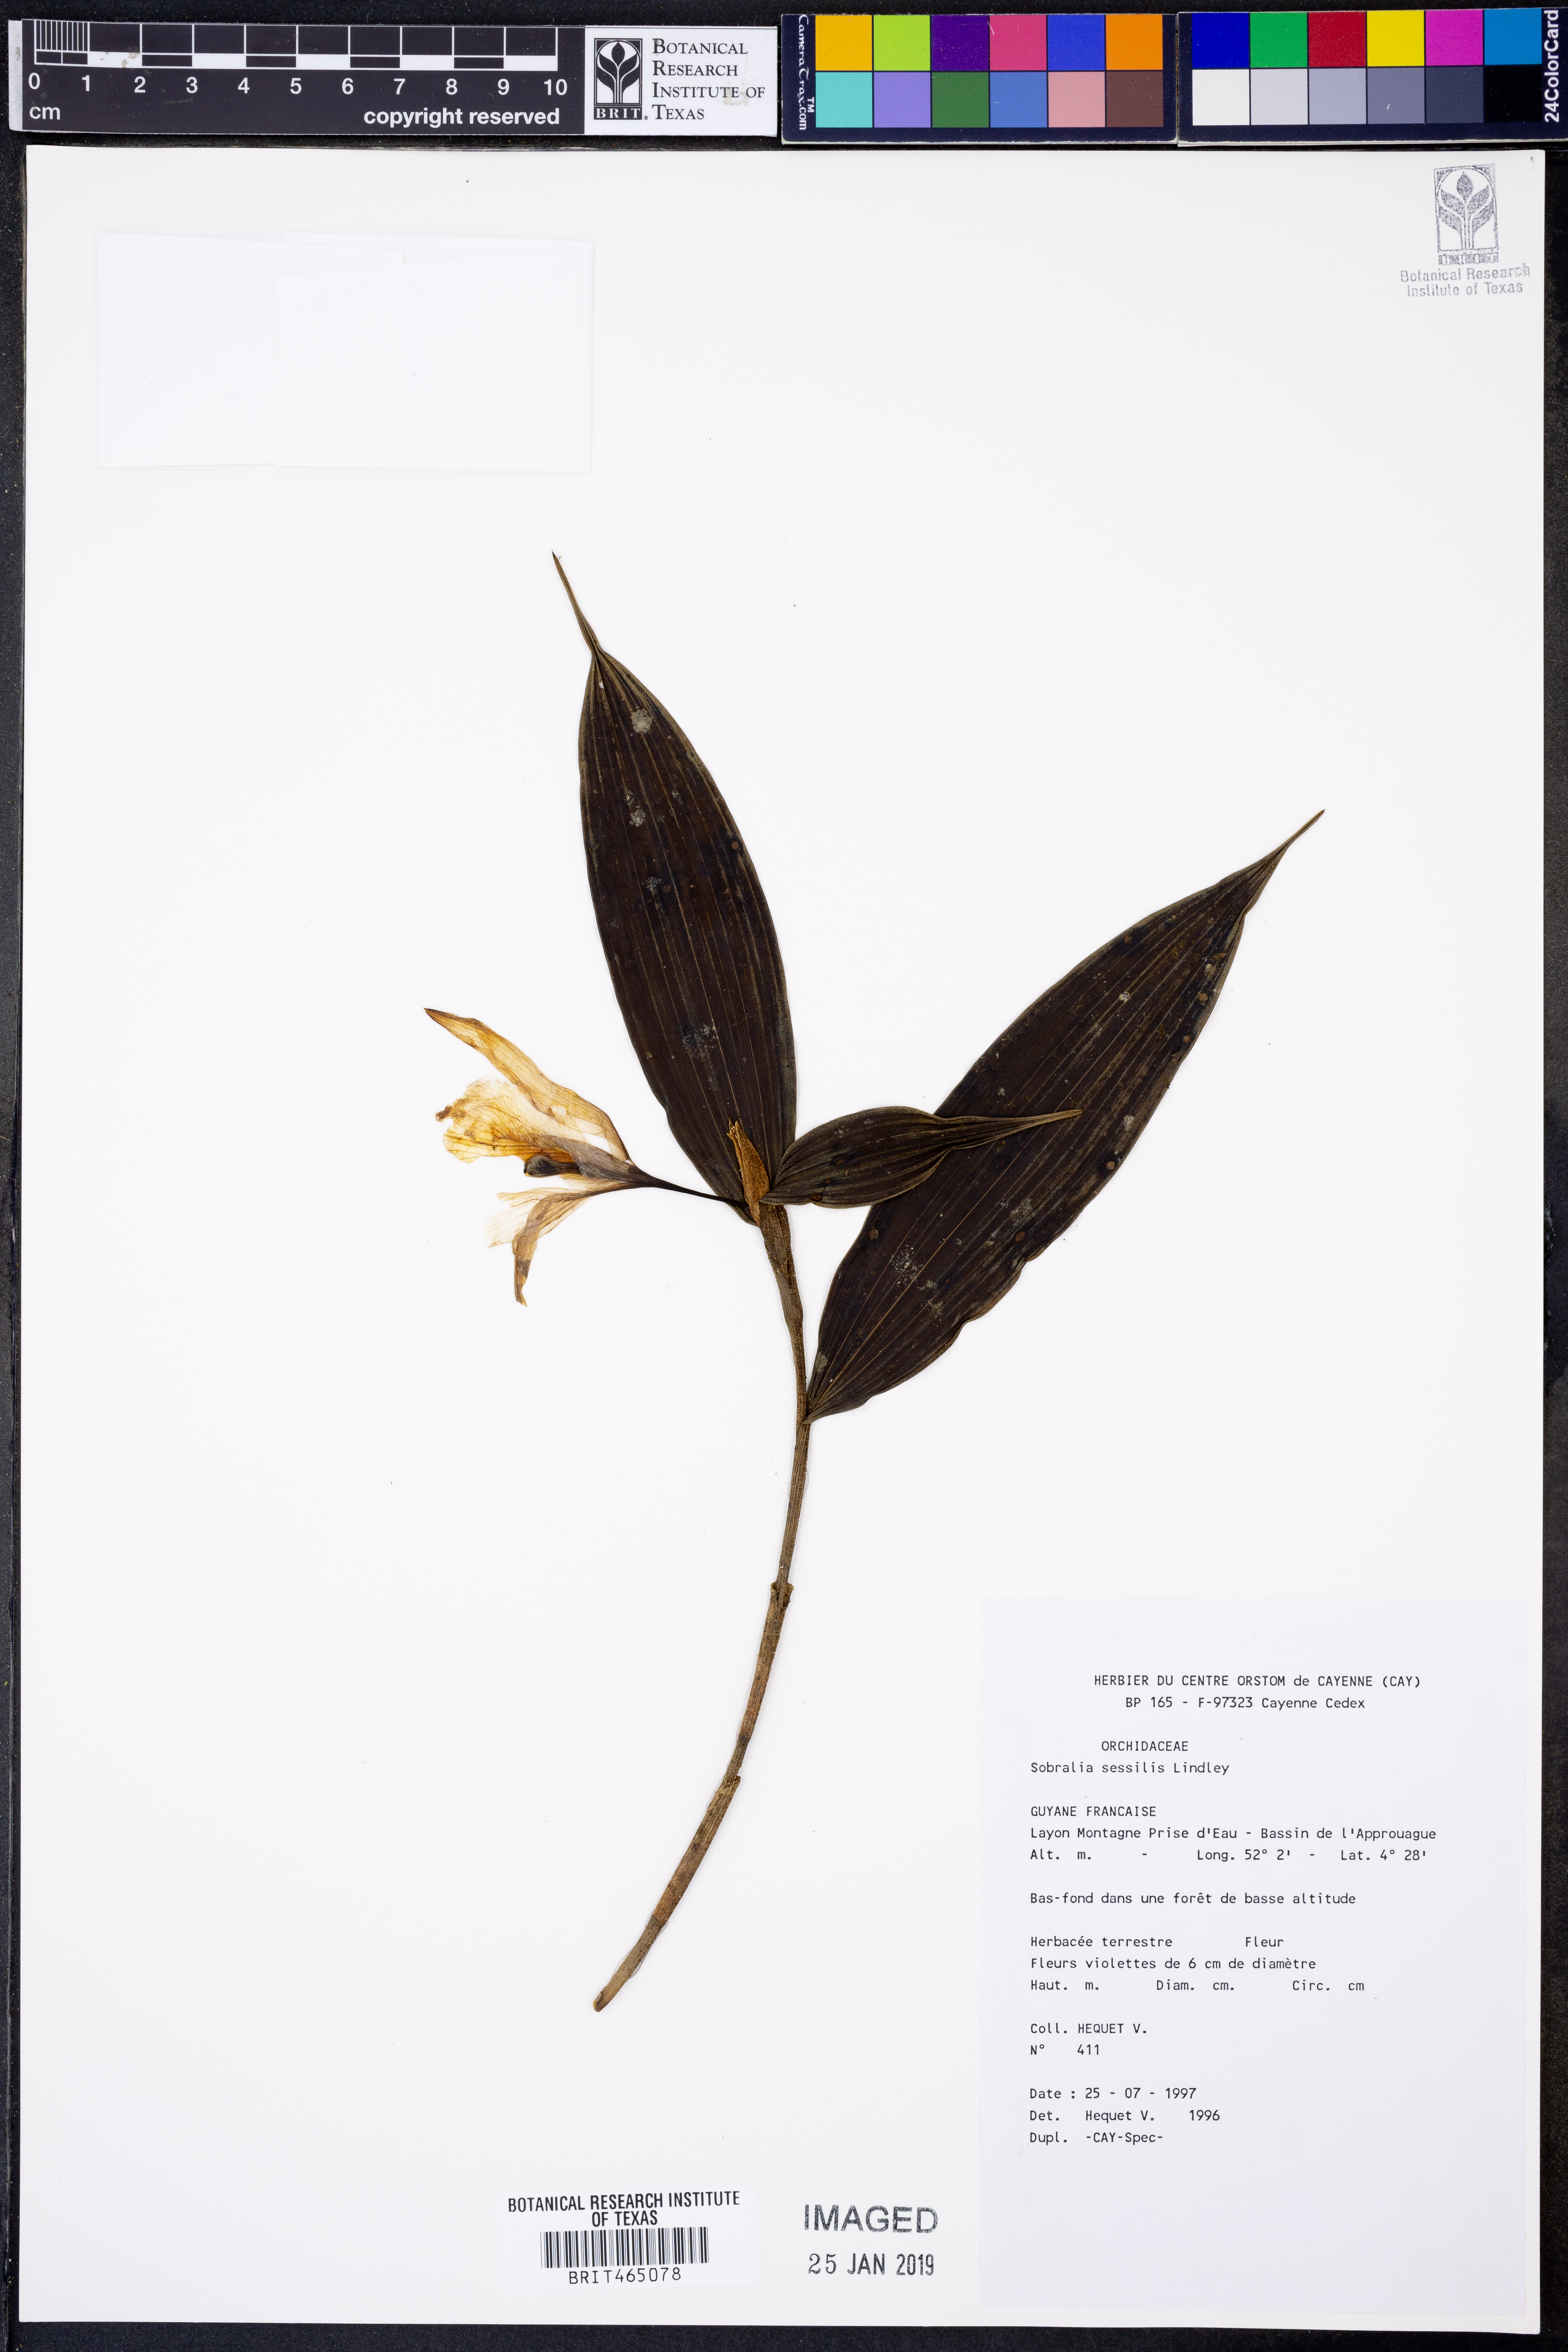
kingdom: Plantae
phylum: Tracheophyta
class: Liliopsida
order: Asparagales
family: Orchidaceae
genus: Sobralia
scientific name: Sobralia sessilis
